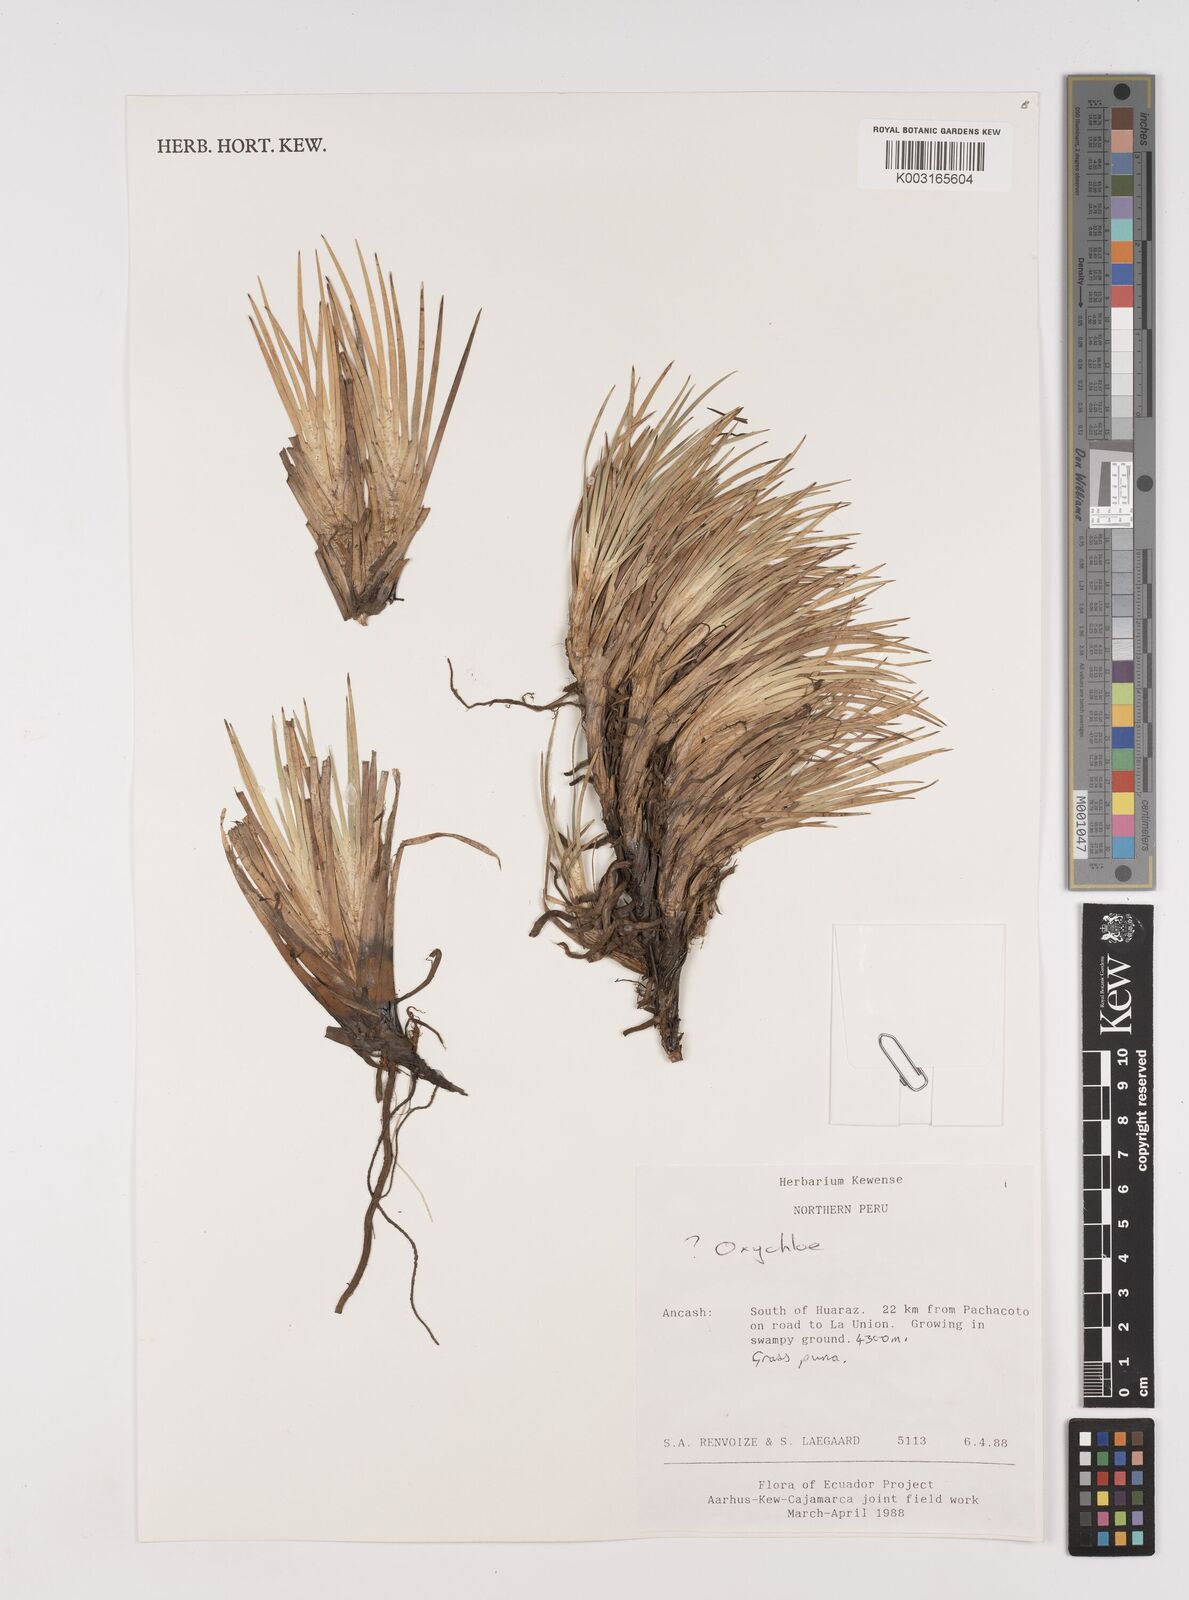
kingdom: Plantae
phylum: Tracheophyta
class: Liliopsida
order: Poales
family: Juncaceae
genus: Oxychloe
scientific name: Oxychloe
